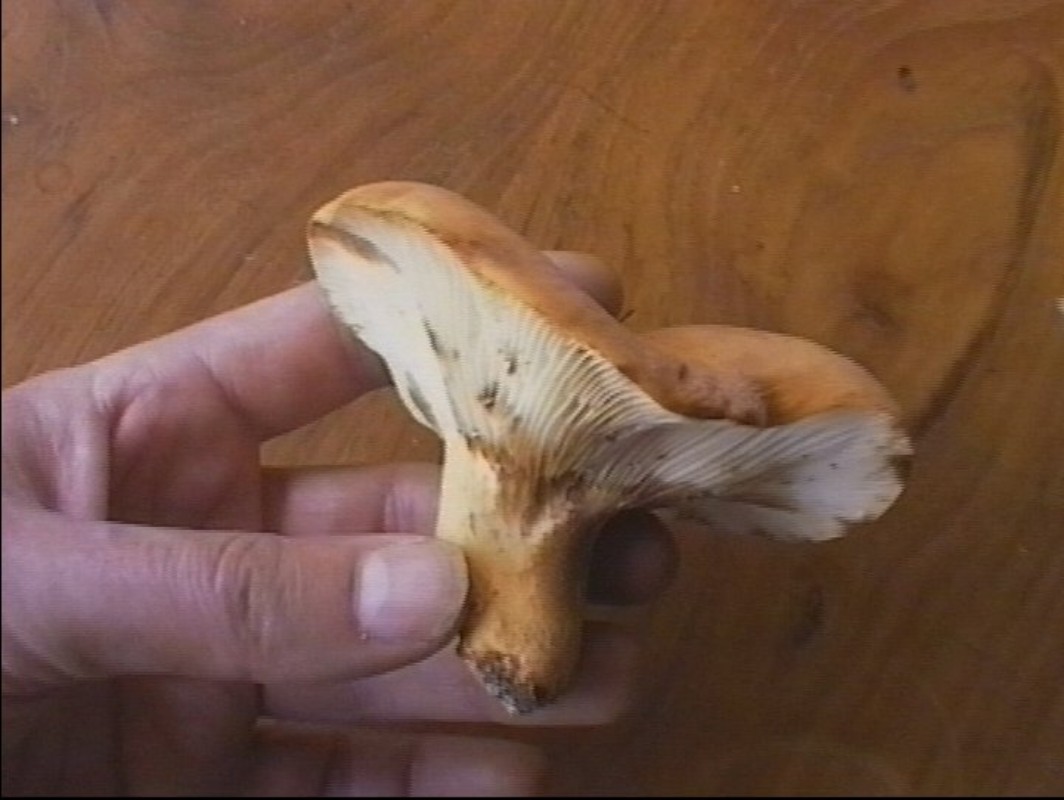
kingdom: Fungi
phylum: Basidiomycota
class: Agaricomycetes
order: Russulales
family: Russulaceae
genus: Lactifluus
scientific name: Lactifluus volemus
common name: spiselig mælkehat
